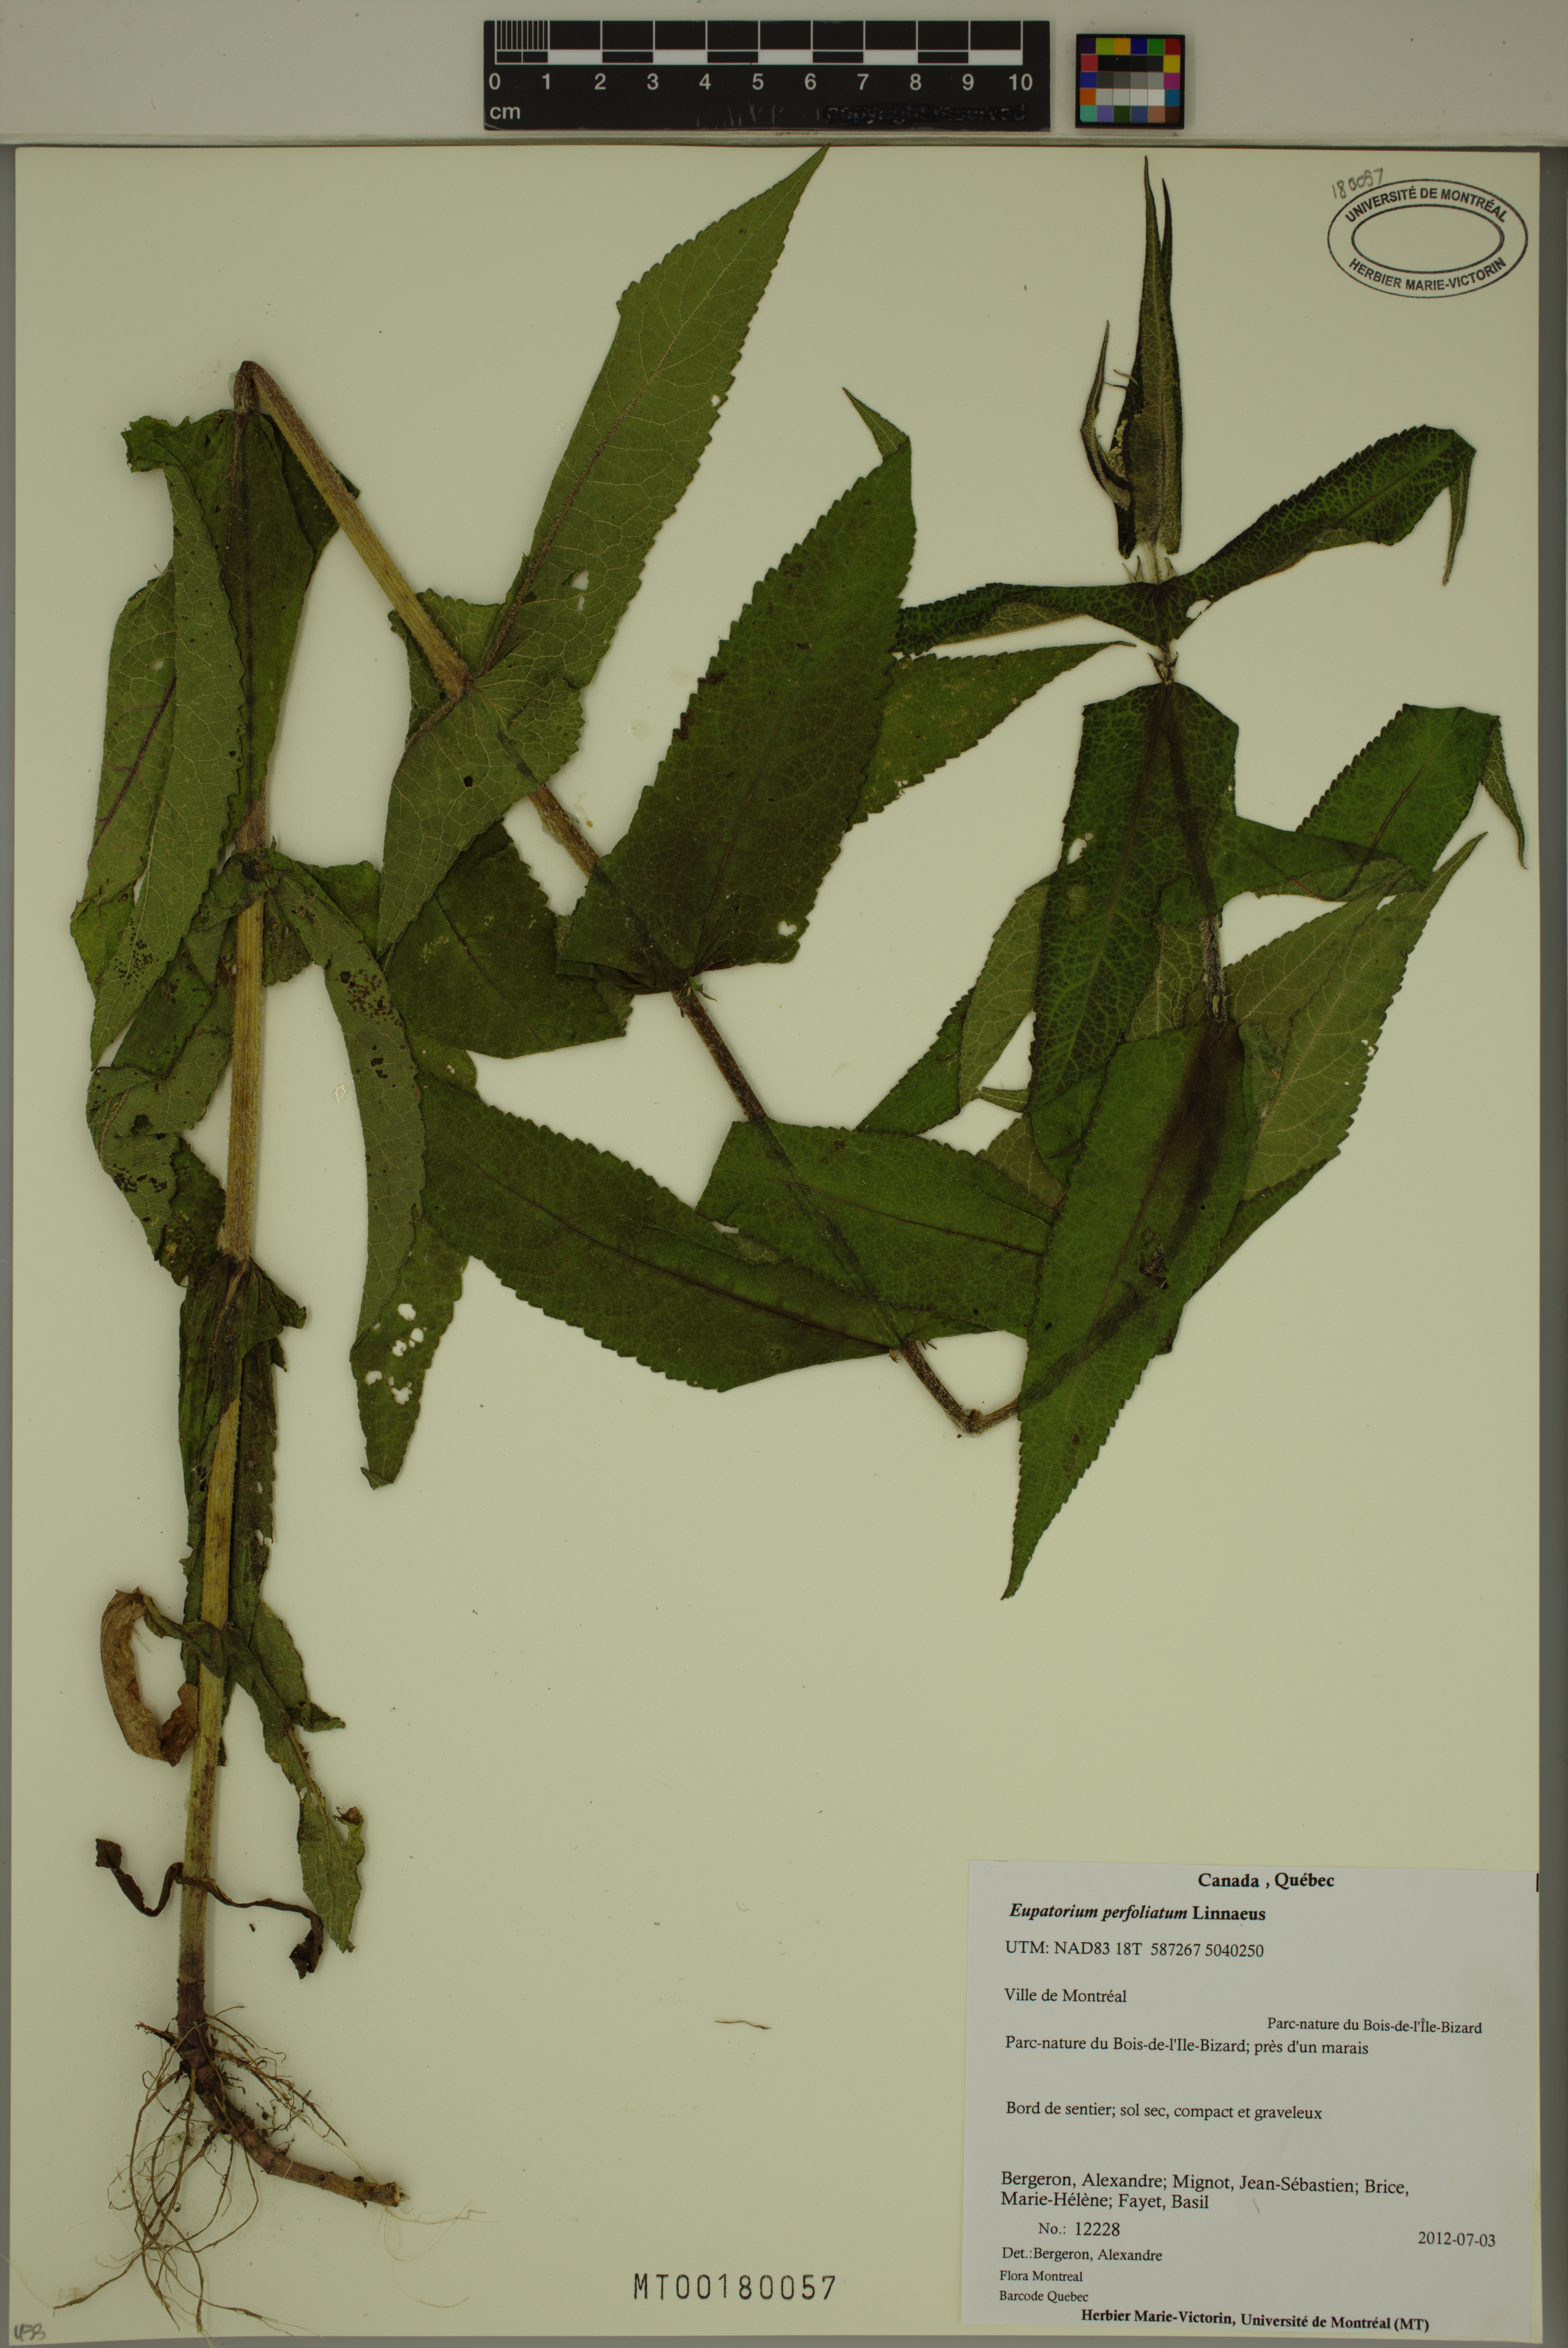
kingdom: Plantae
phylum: Tracheophyta
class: Magnoliopsida
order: Asterales
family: Asteraceae
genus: Eupatorium
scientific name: Eupatorium perfoliatum
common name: Boneset
